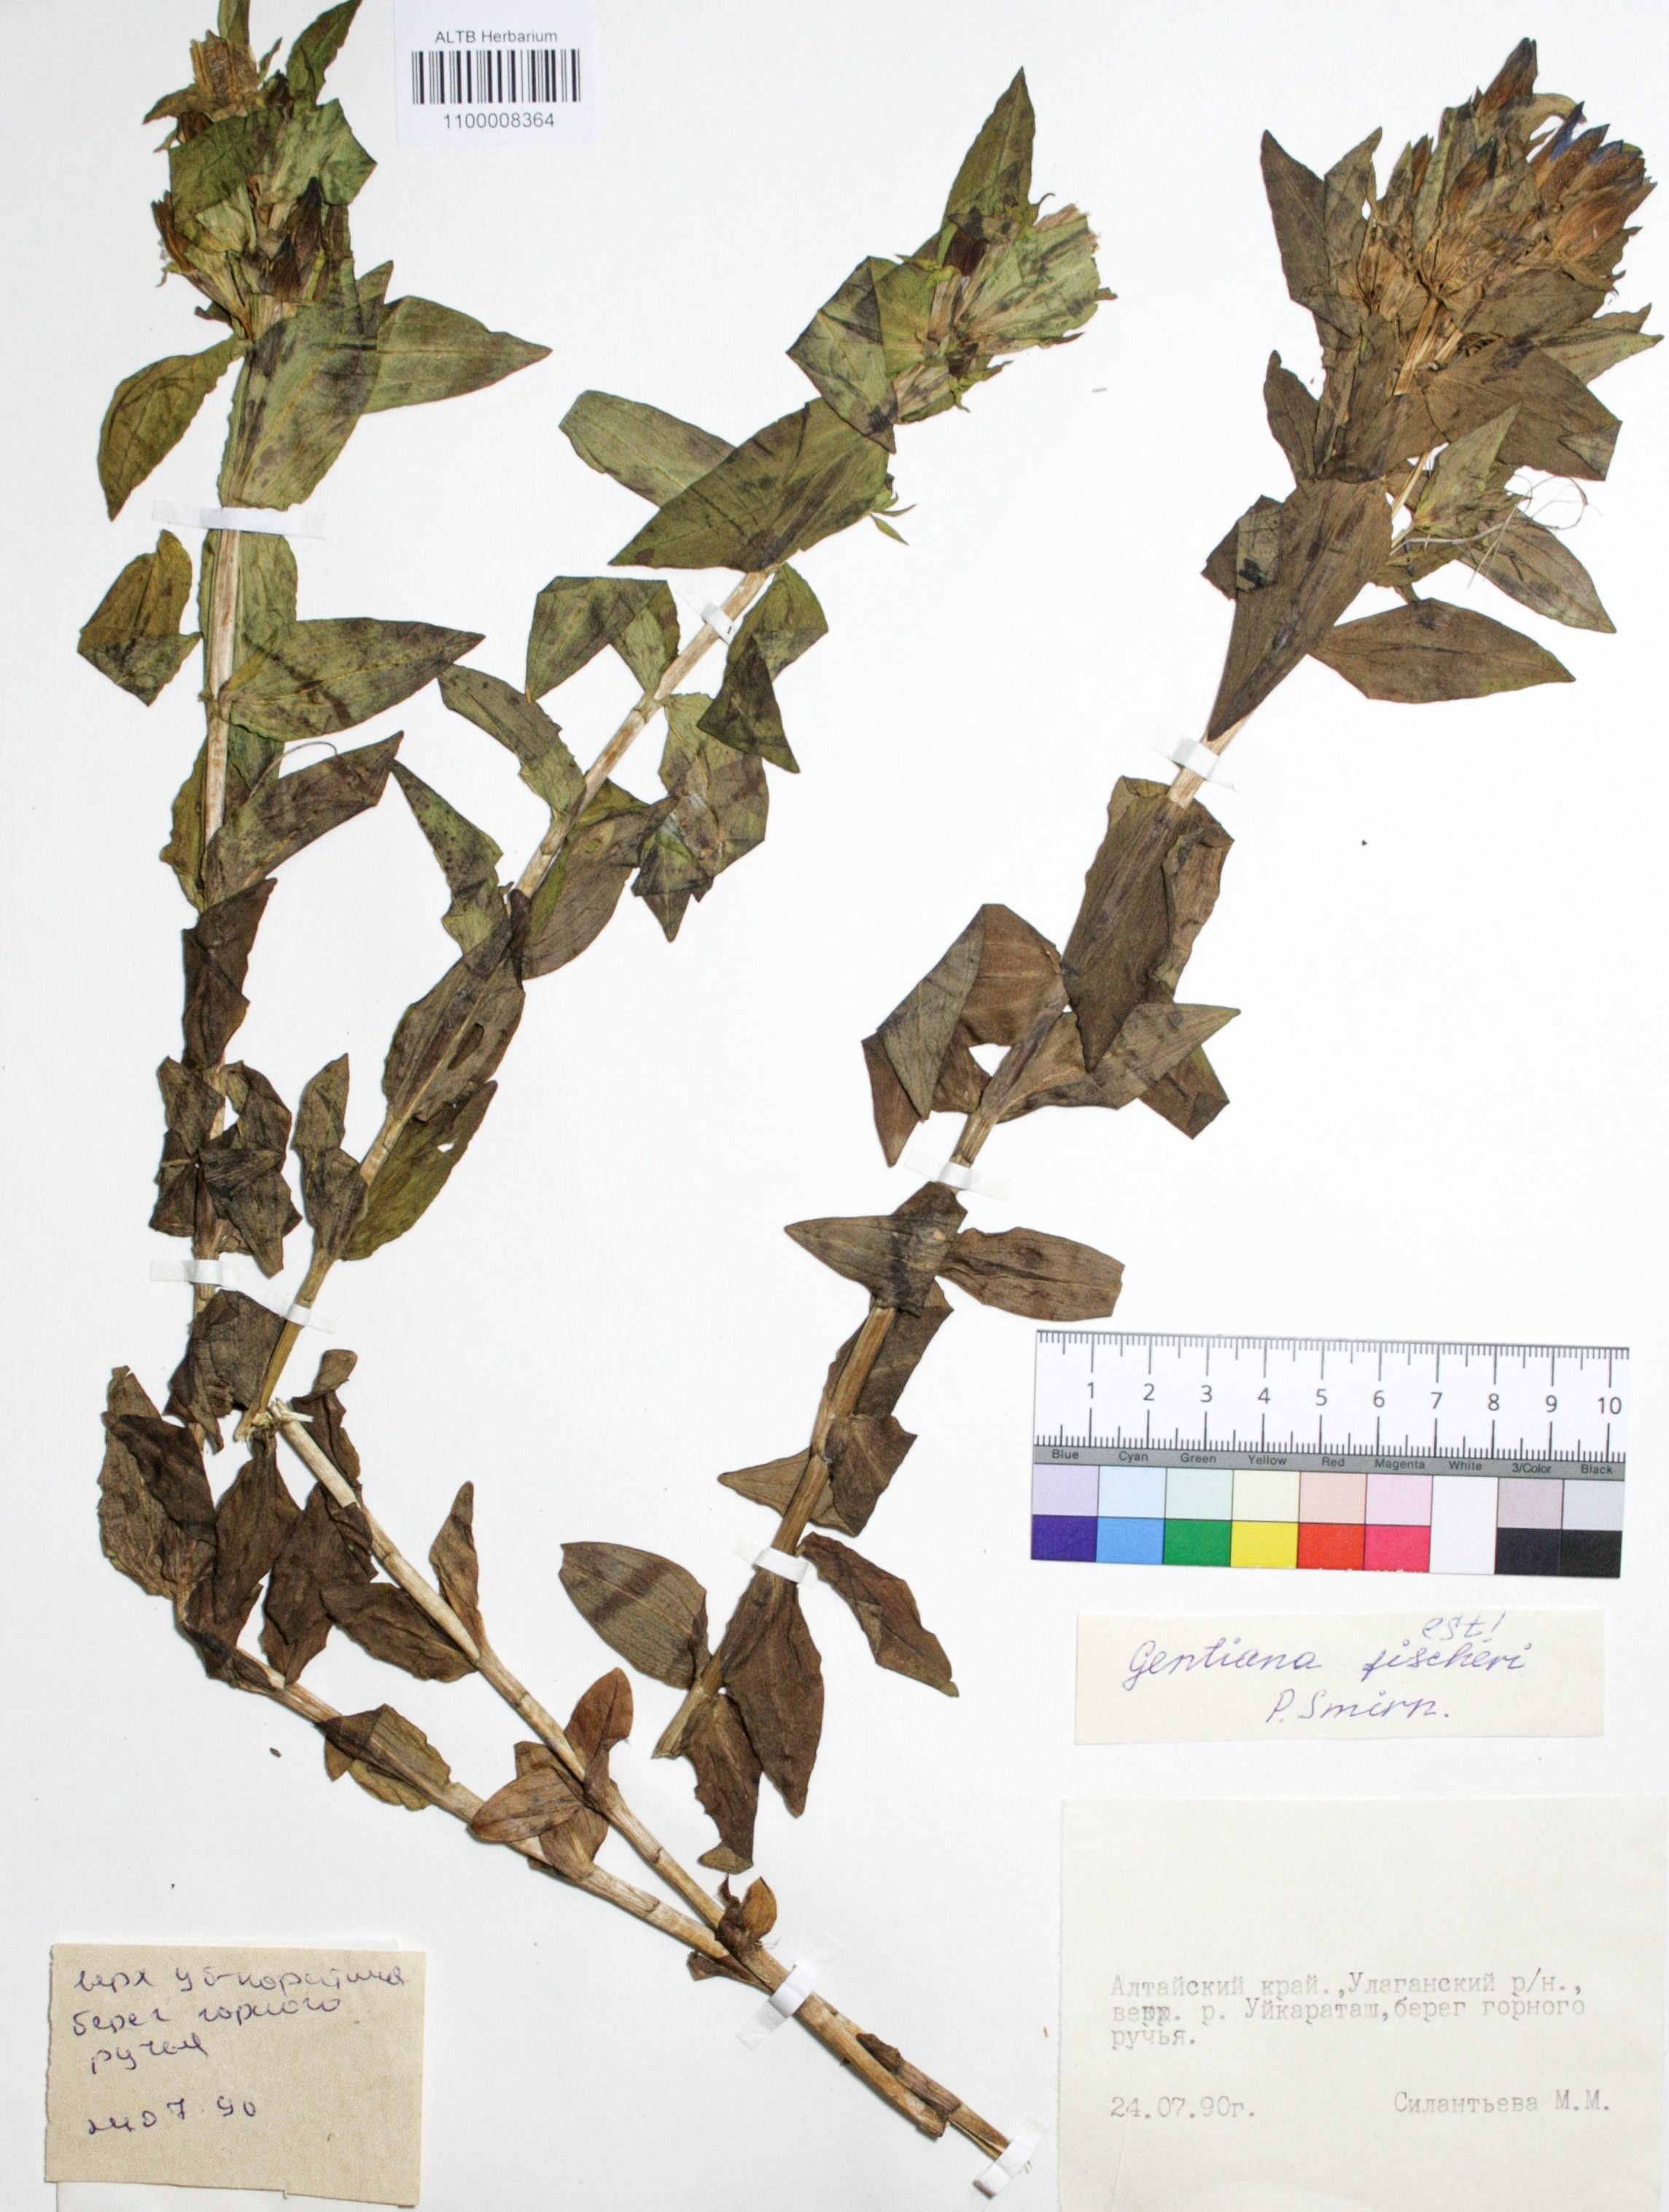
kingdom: Plantae
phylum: Tracheophyta
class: Magnoliopsida
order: Gentianales
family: Gentianaceae
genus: Gentiana
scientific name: Gentiana dschungarica
